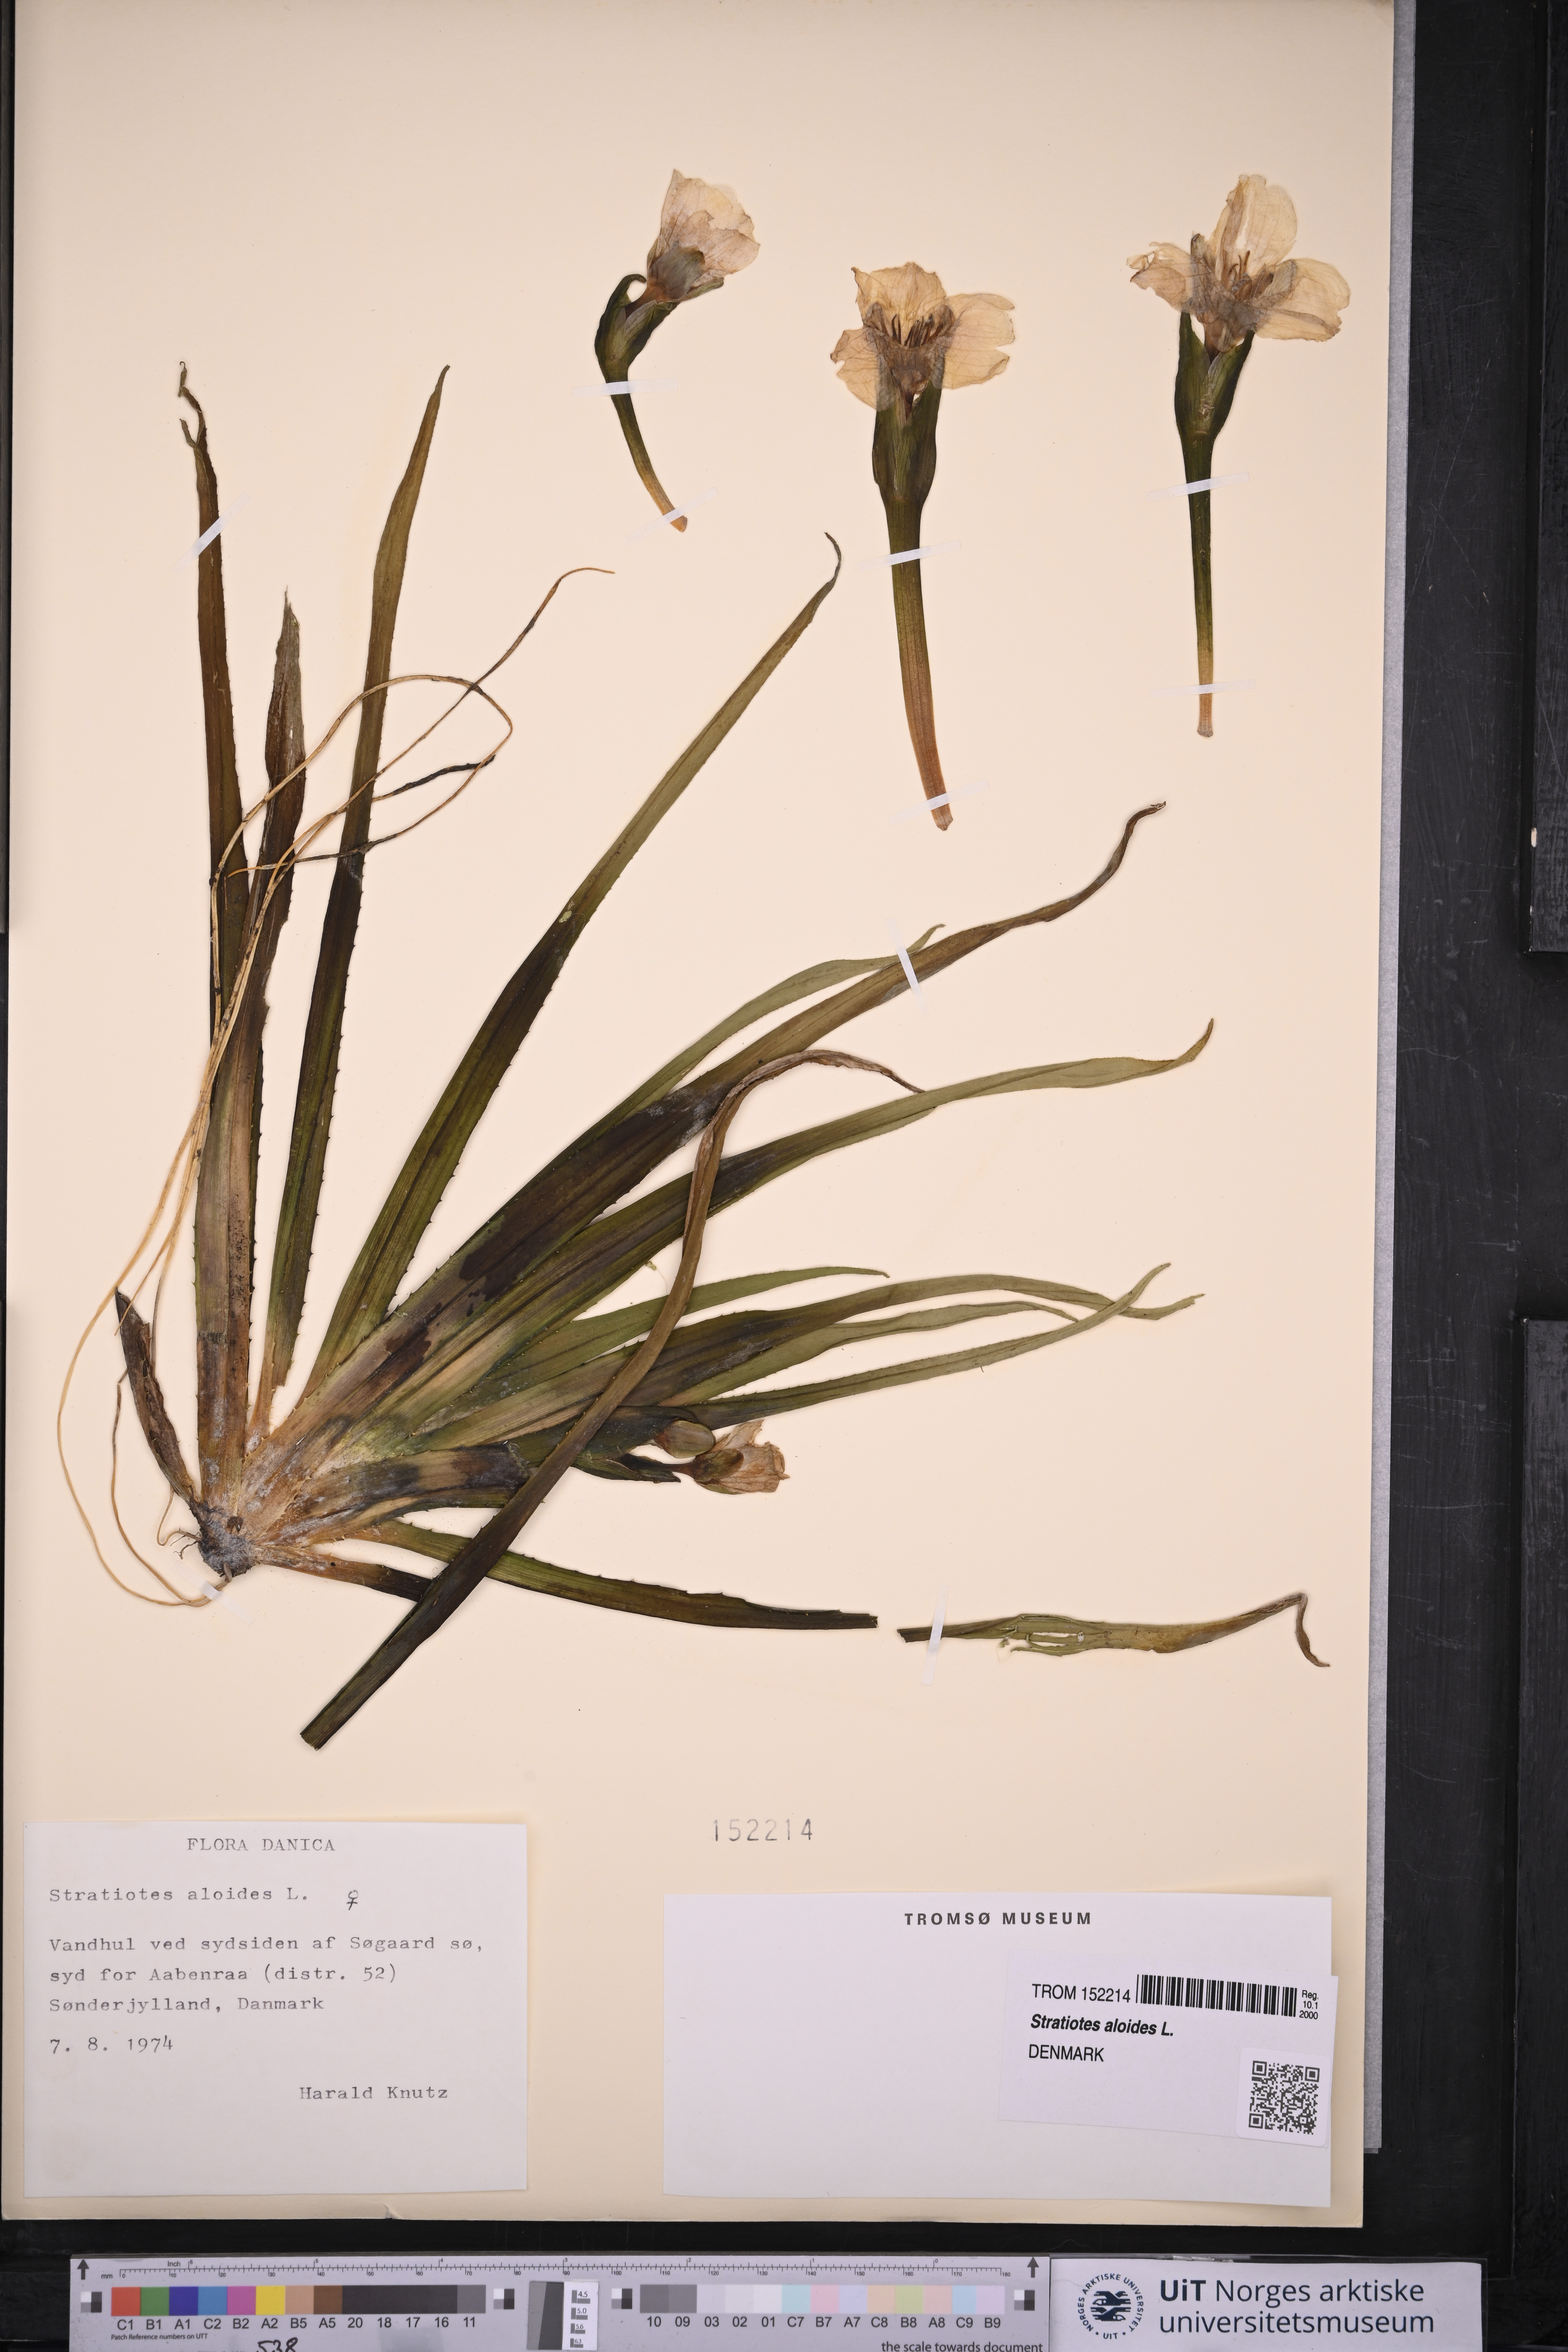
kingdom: Plantae
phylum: Tracheophyta
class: Liliopsida
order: Alismatales
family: Hydrocharitaceae
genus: Stratiotes
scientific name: Stratiotes aloides
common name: Water-soldier
